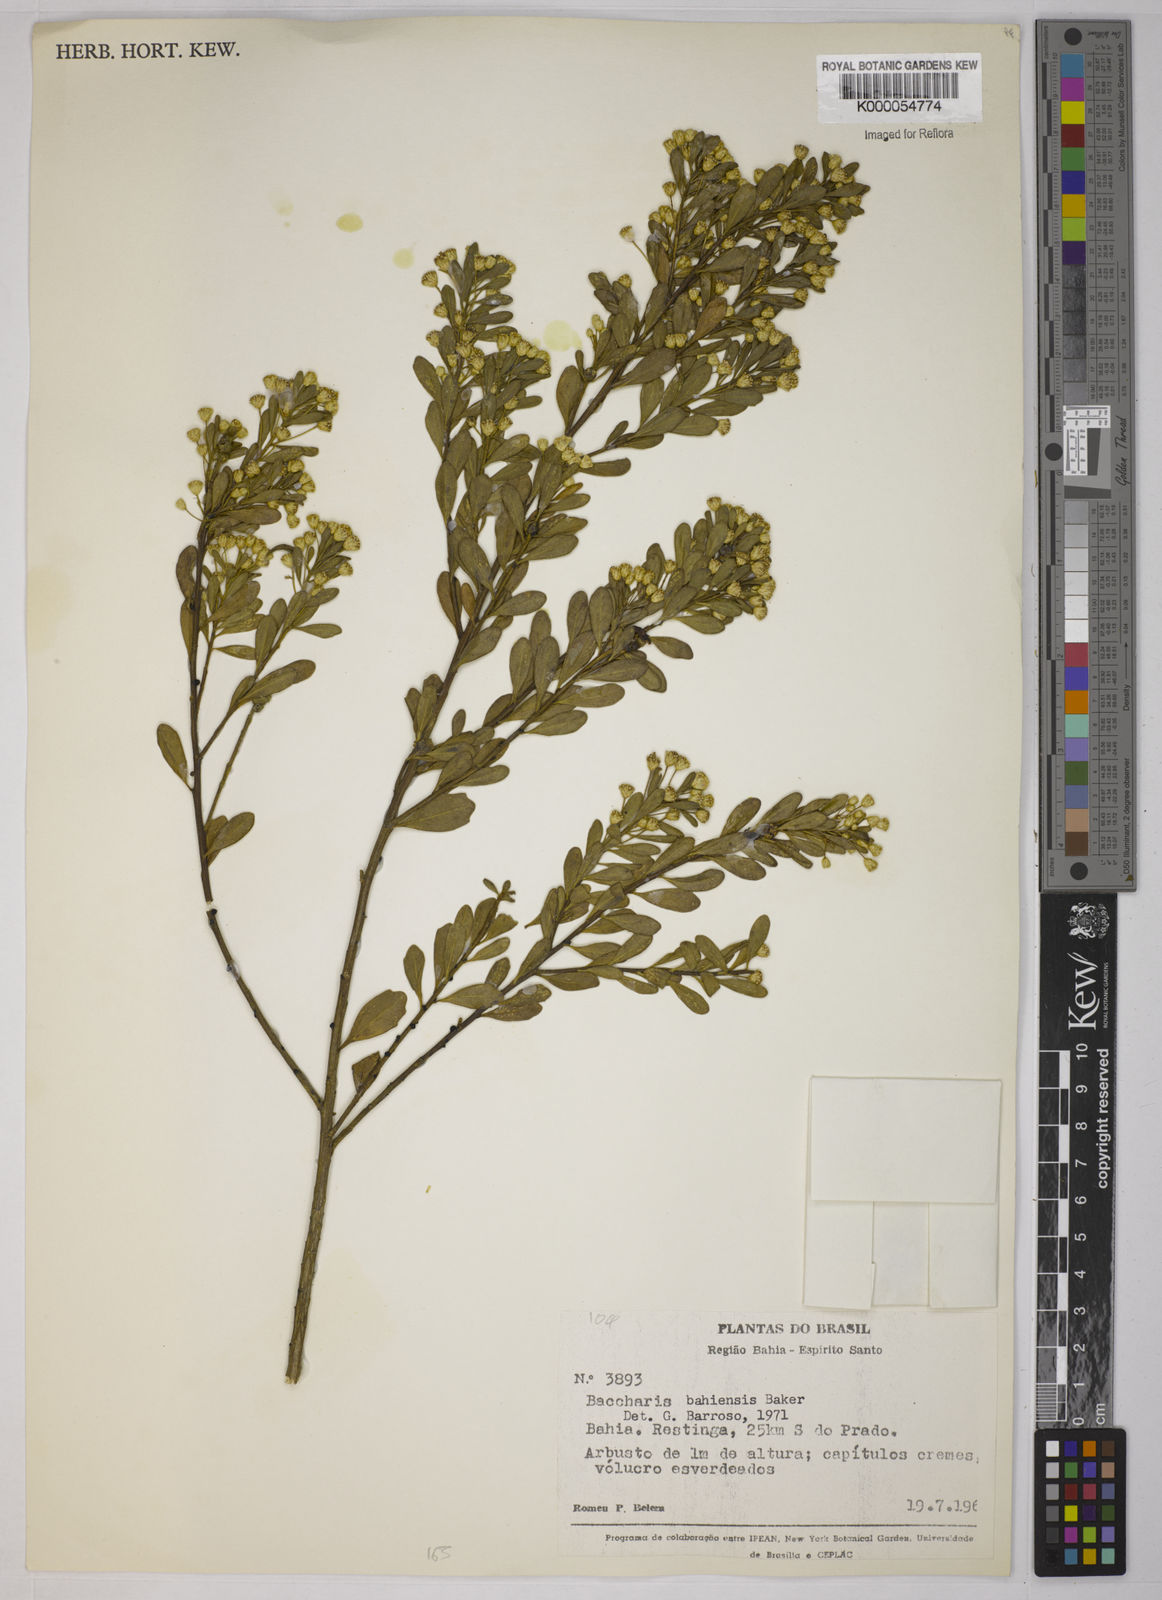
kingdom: Plantae
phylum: Tracheophyta
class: Magnoliopsida
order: Asterales
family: Asteraceae
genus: Baccharis
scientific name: Baccharis
